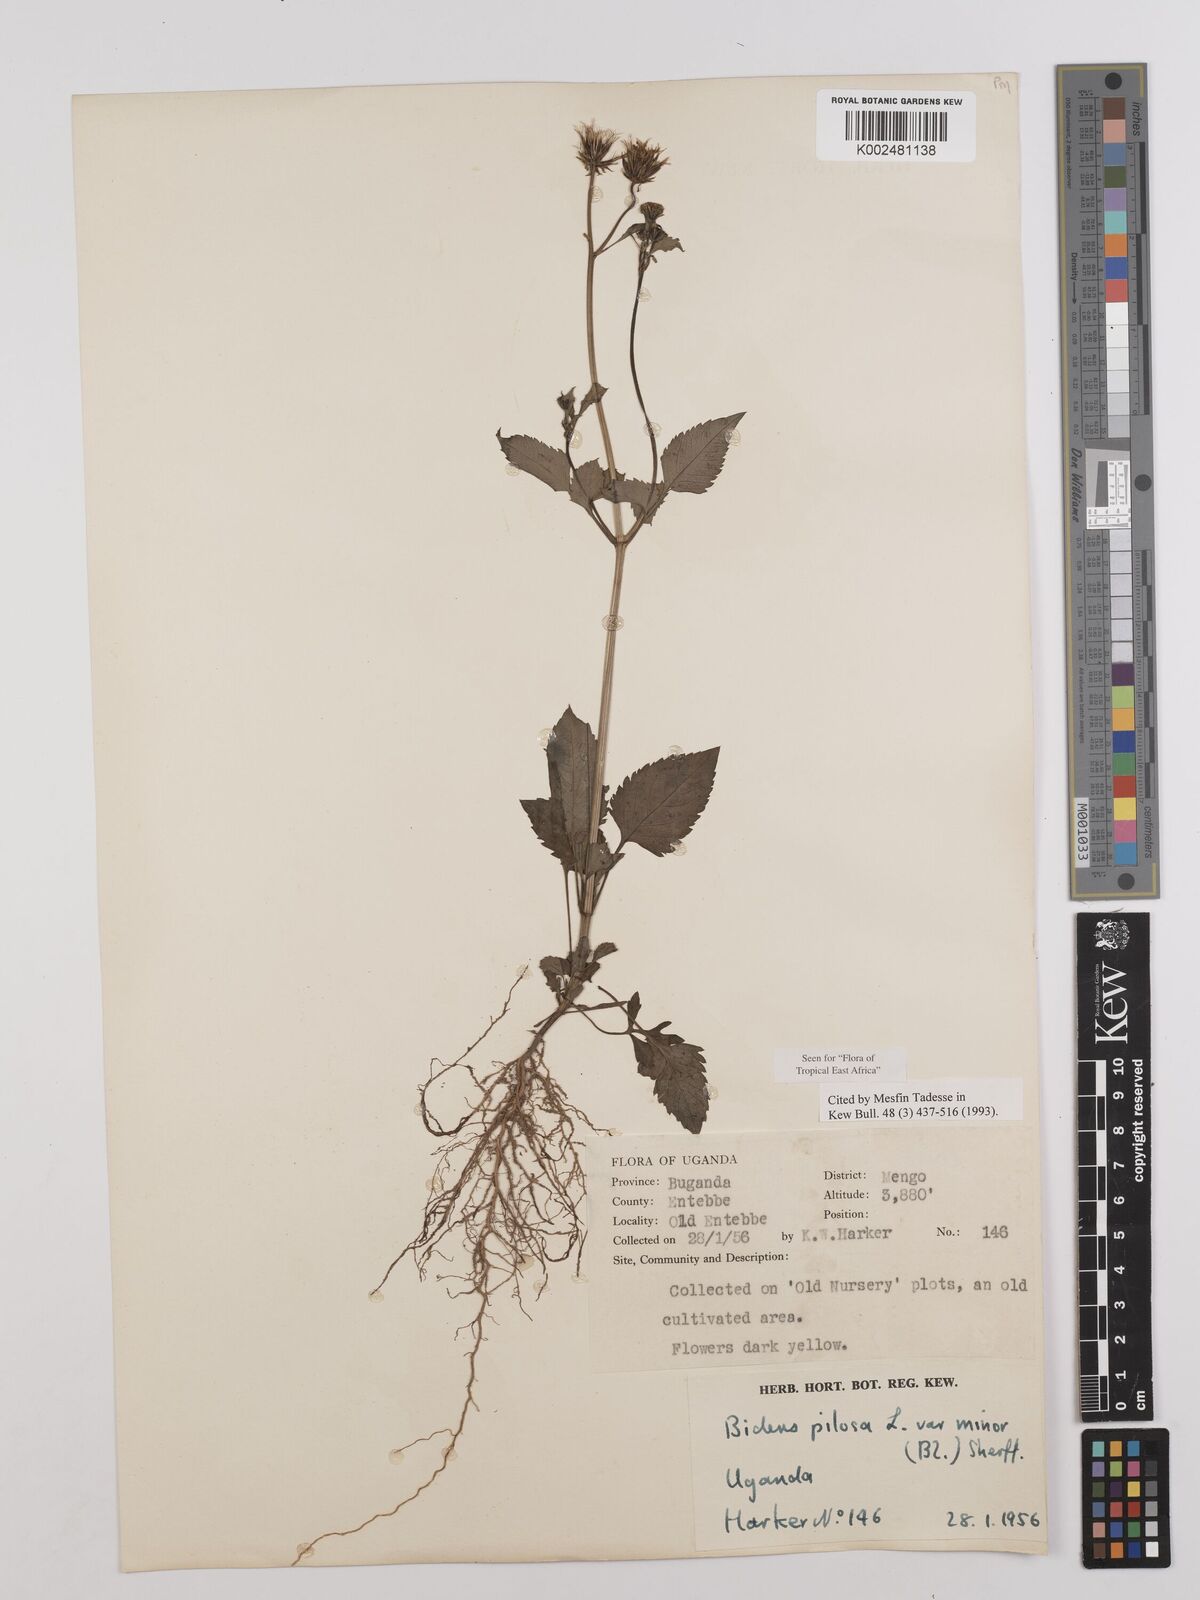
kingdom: Plantae
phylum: Tracheophyta
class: Magnoliopsida
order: Asterales
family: Asteraceae
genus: Bidens
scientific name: Bidens pilosa
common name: Black-jack
